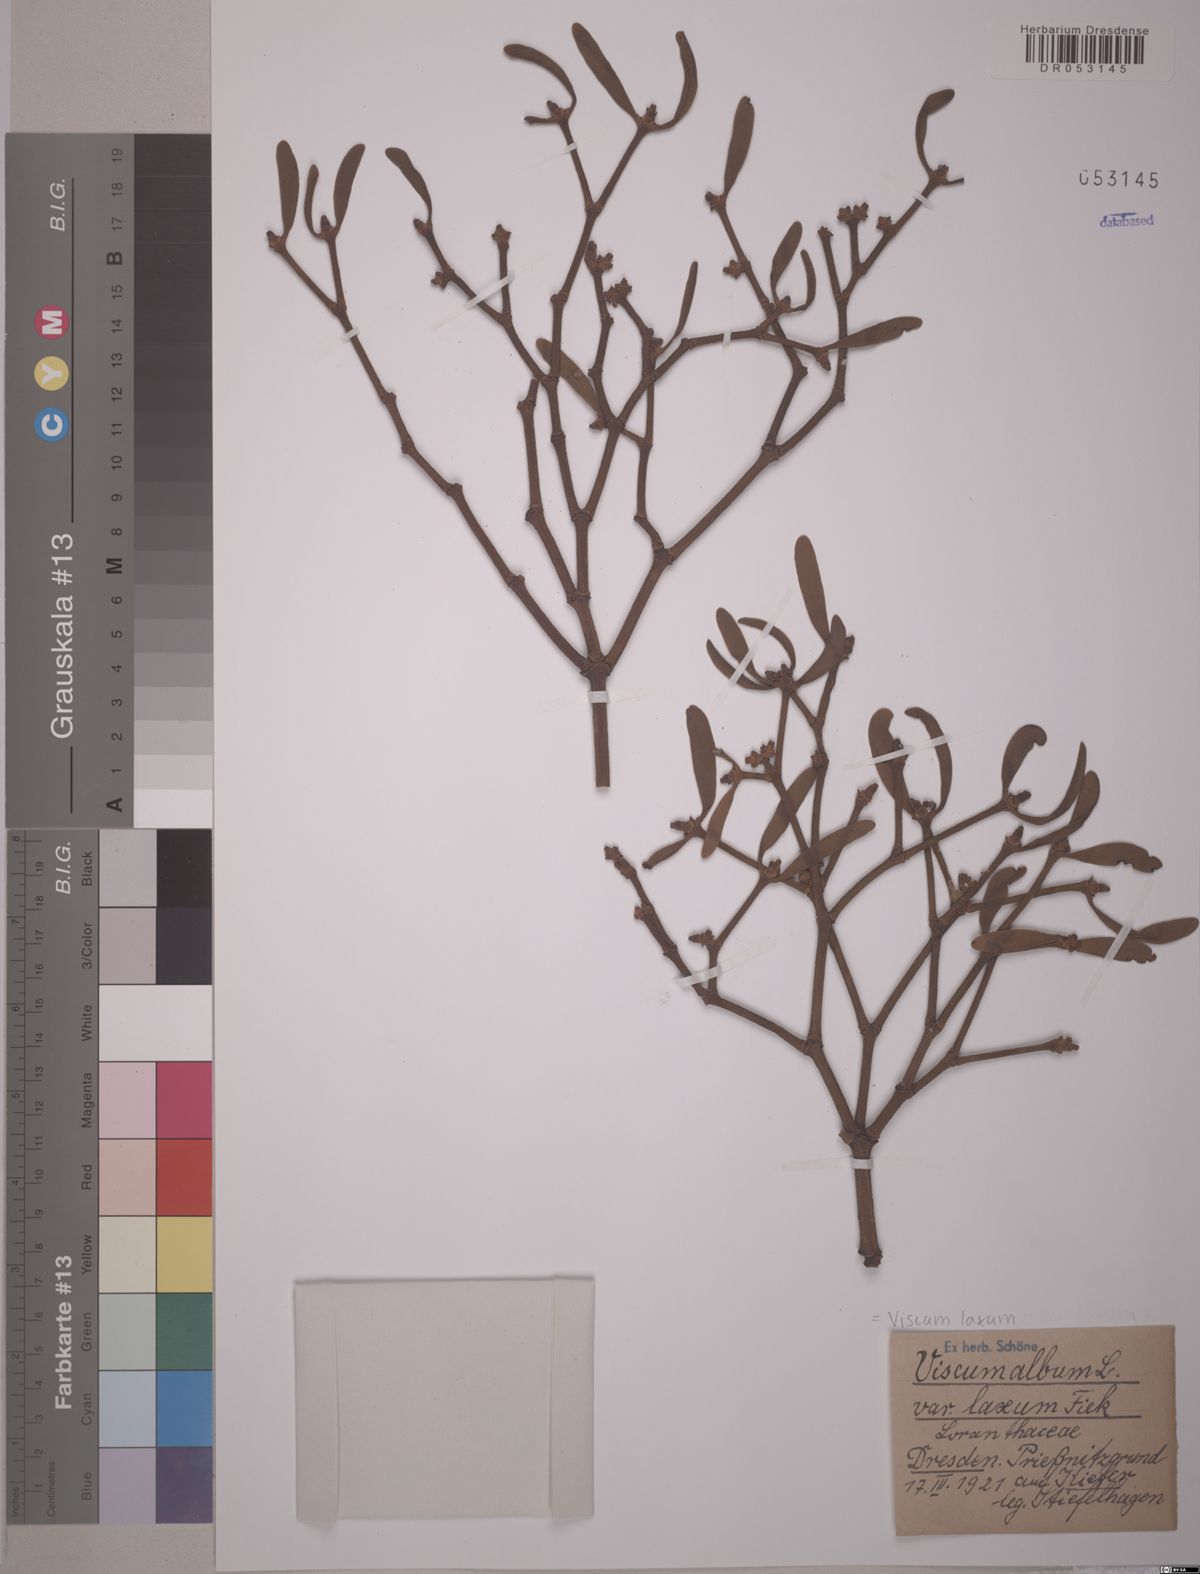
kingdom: Plantae
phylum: Tracheophyta
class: Magnoliopsida
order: Santalales
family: Viscaceae
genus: Viscum
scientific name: Viscum laxum
